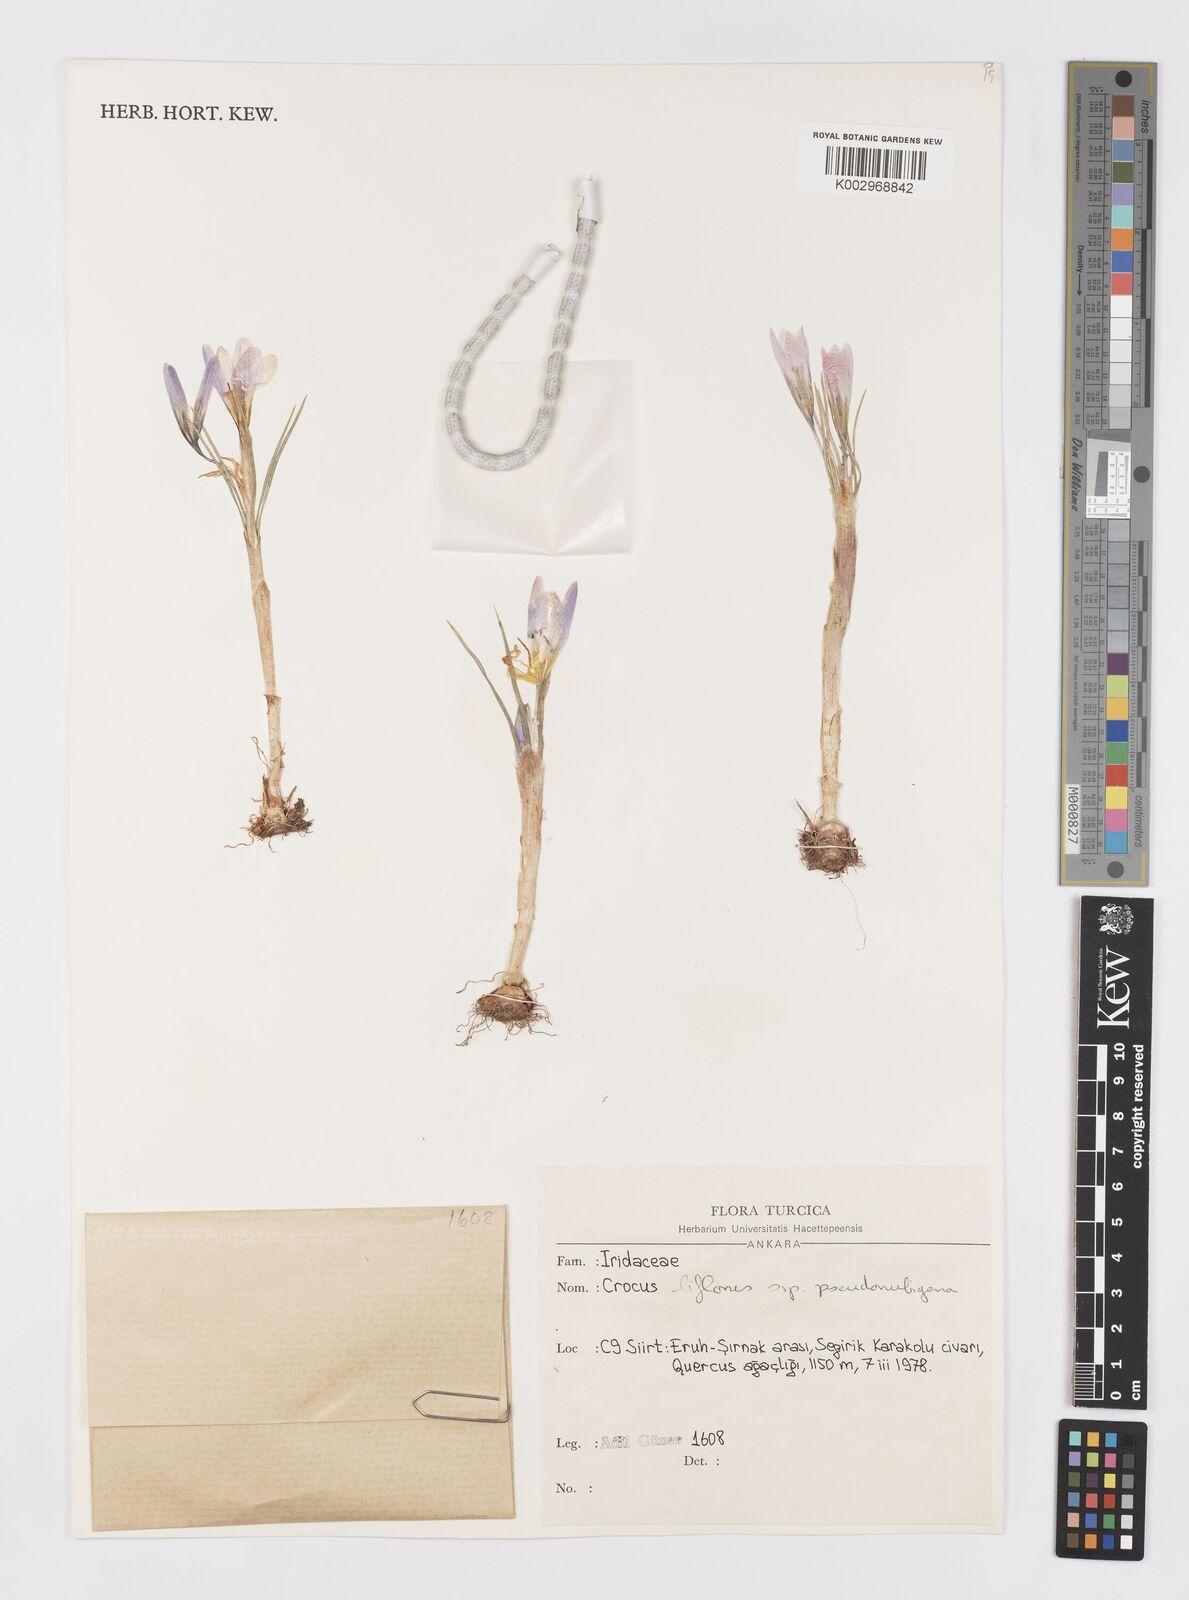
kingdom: Plantae
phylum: Tracheophyta
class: Liliopsida
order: Asparagales
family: Iridaceae
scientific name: Iridaceae
